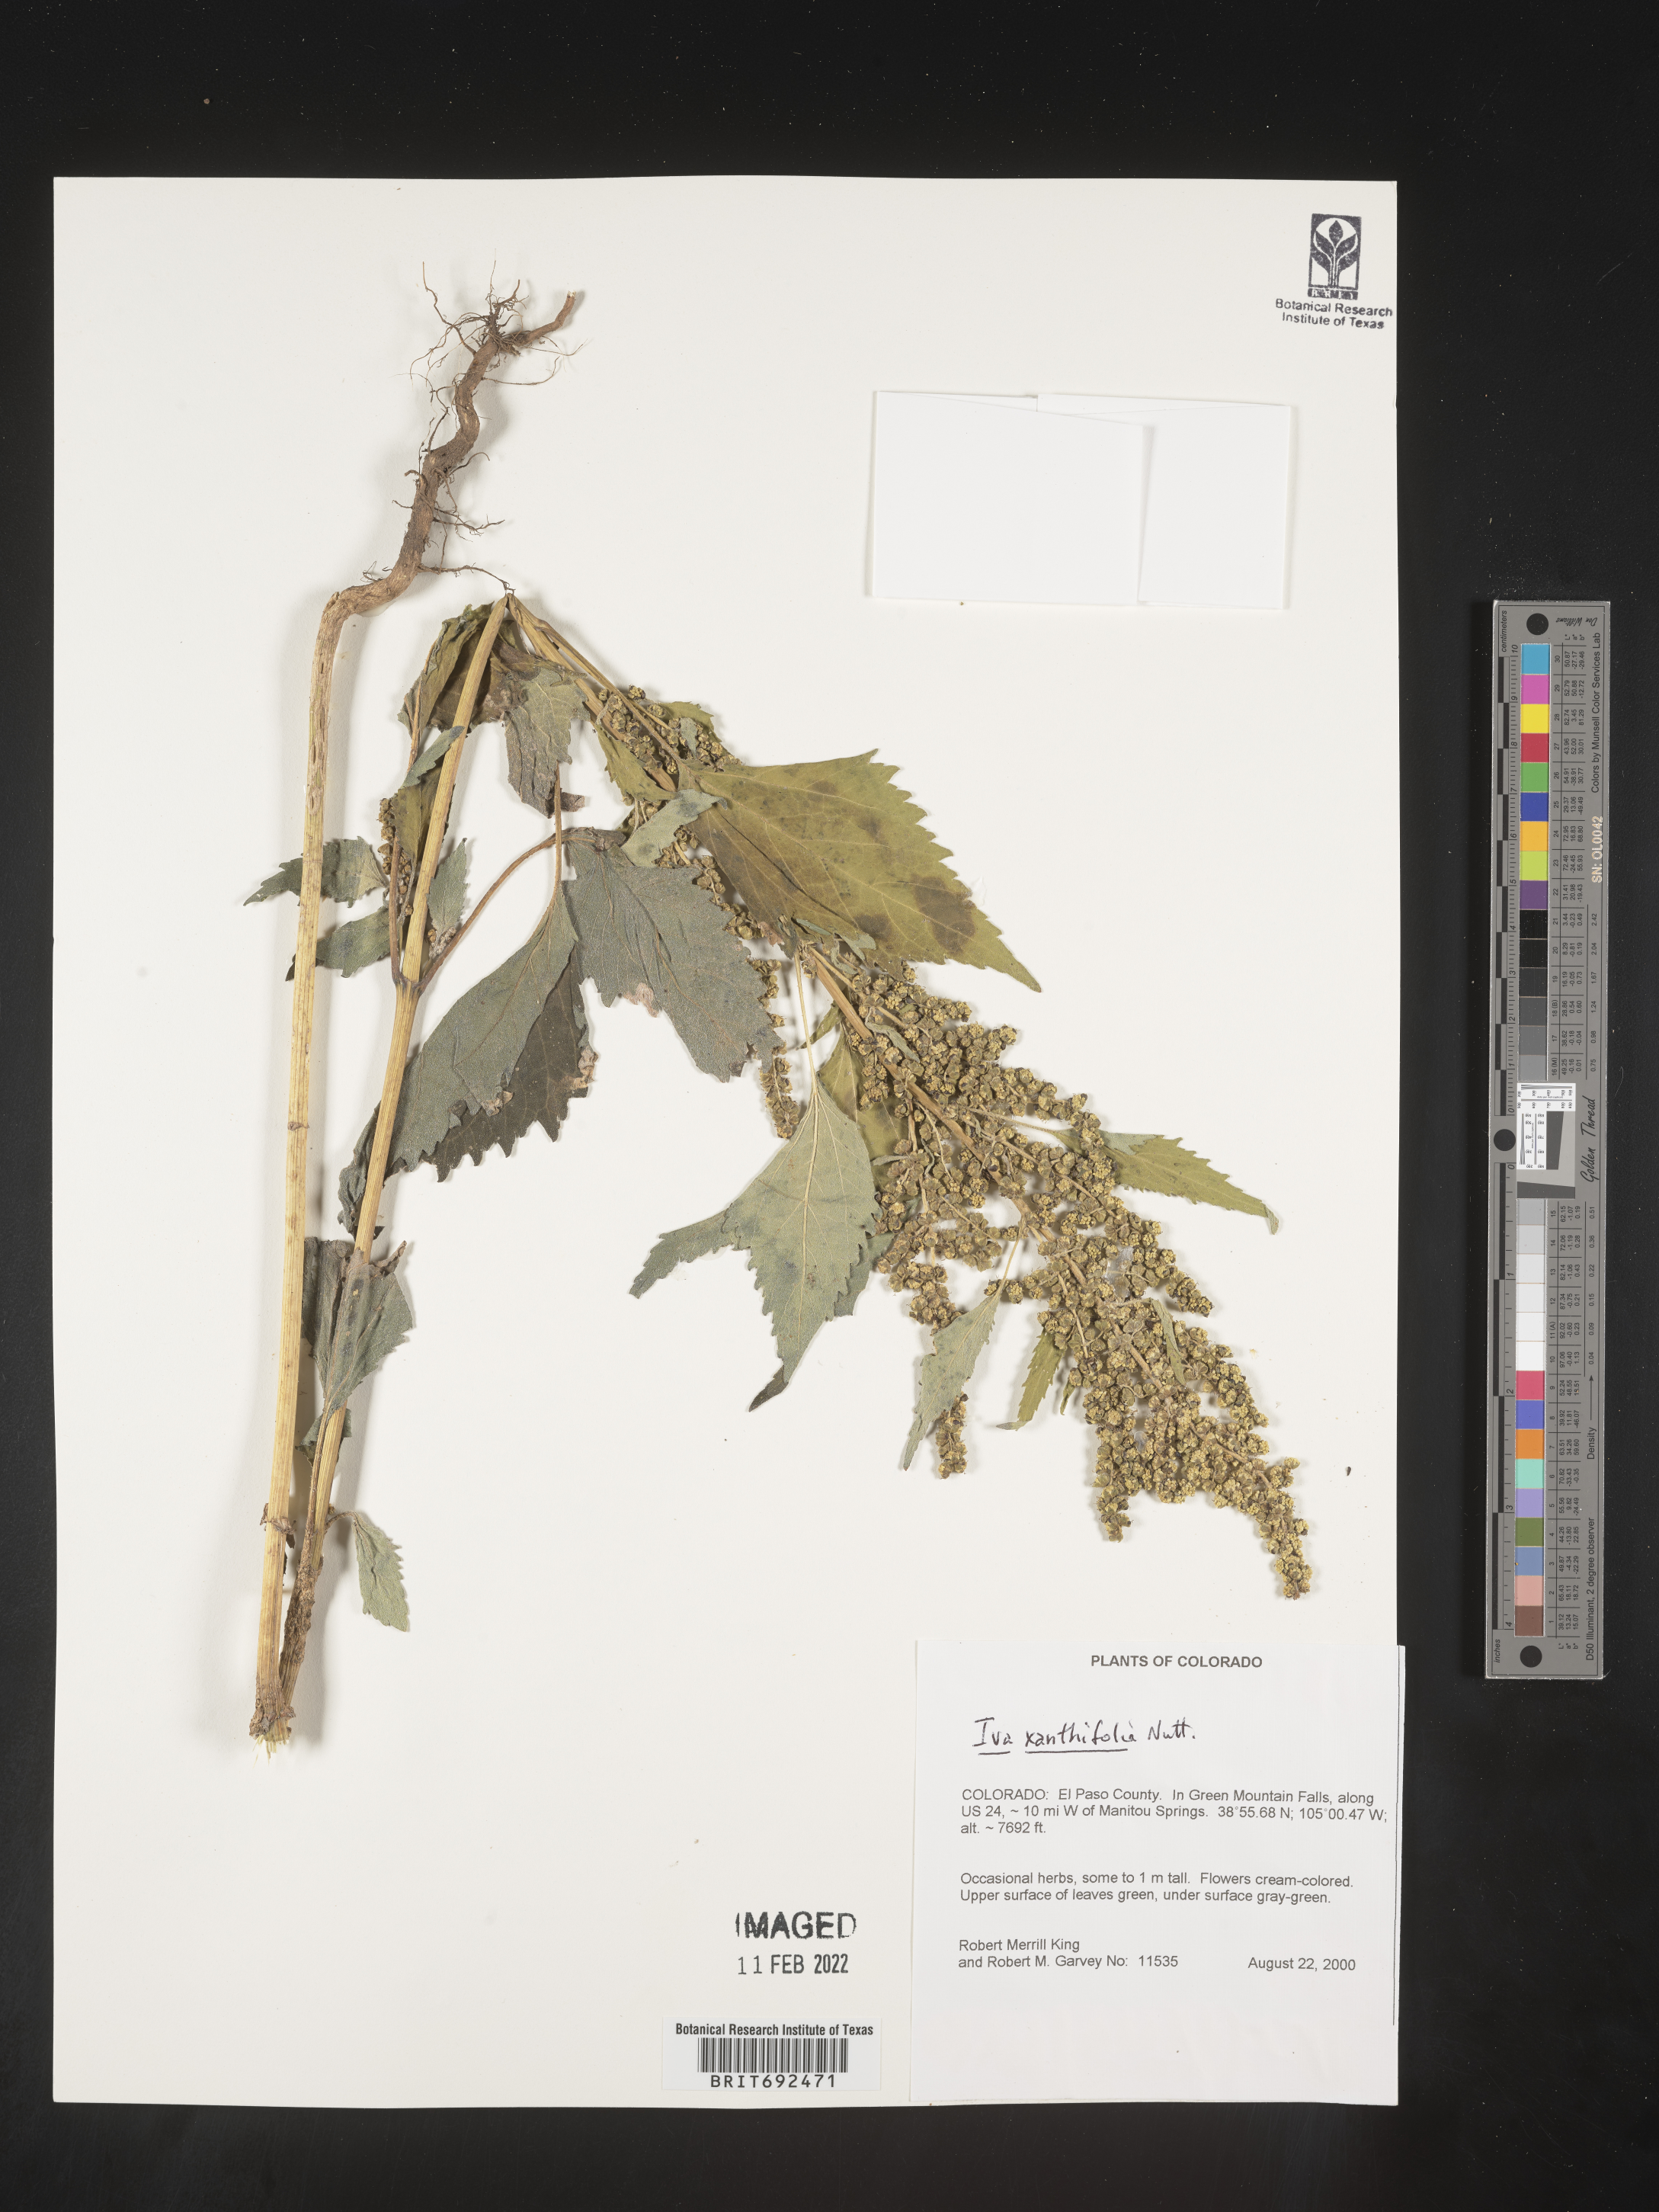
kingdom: Plantae
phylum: Tracheophyta
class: Magnoliopsida
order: Asterales
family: Asteraceae
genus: Cyclachaena
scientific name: Cyclachaena
